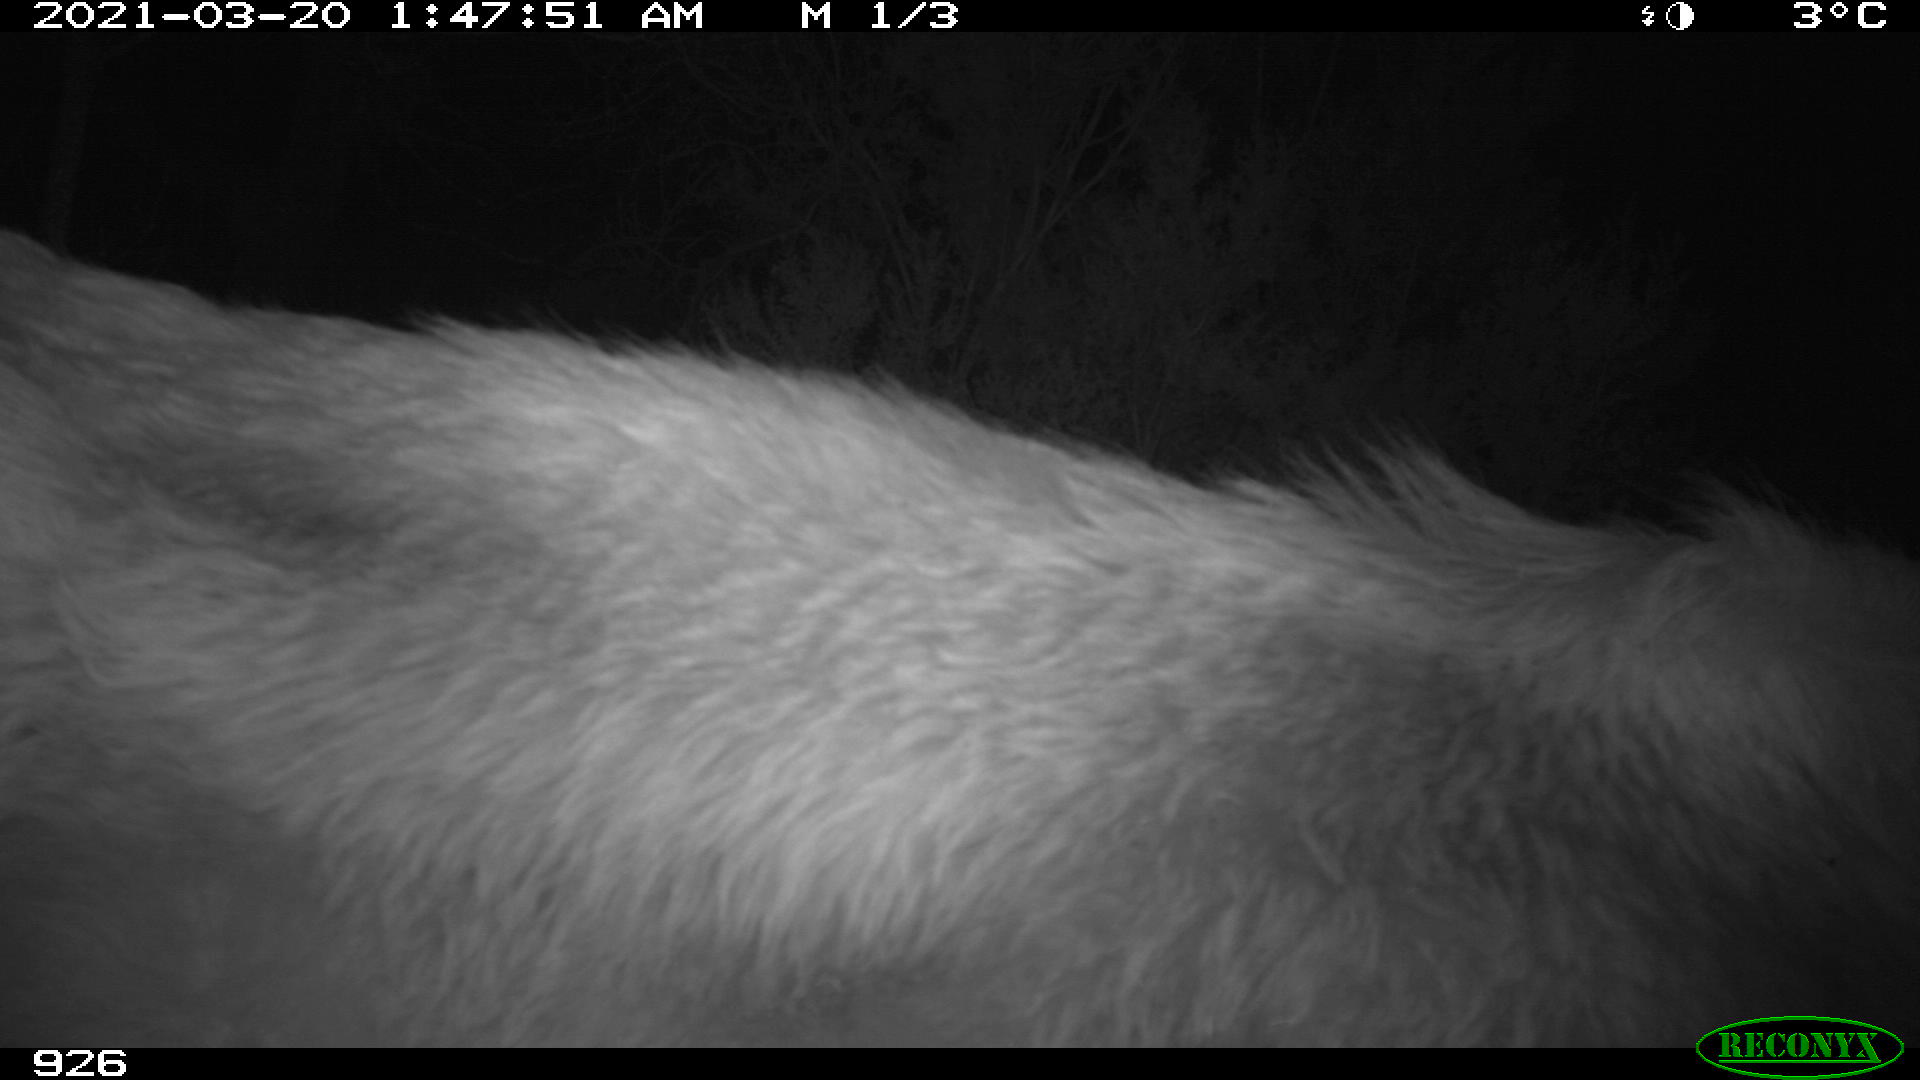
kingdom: Animalia
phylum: Chordata
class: Mammalia
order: Artiodactyla
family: Bovidae
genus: Bos
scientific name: Bos taurus
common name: Domesticated cattle
